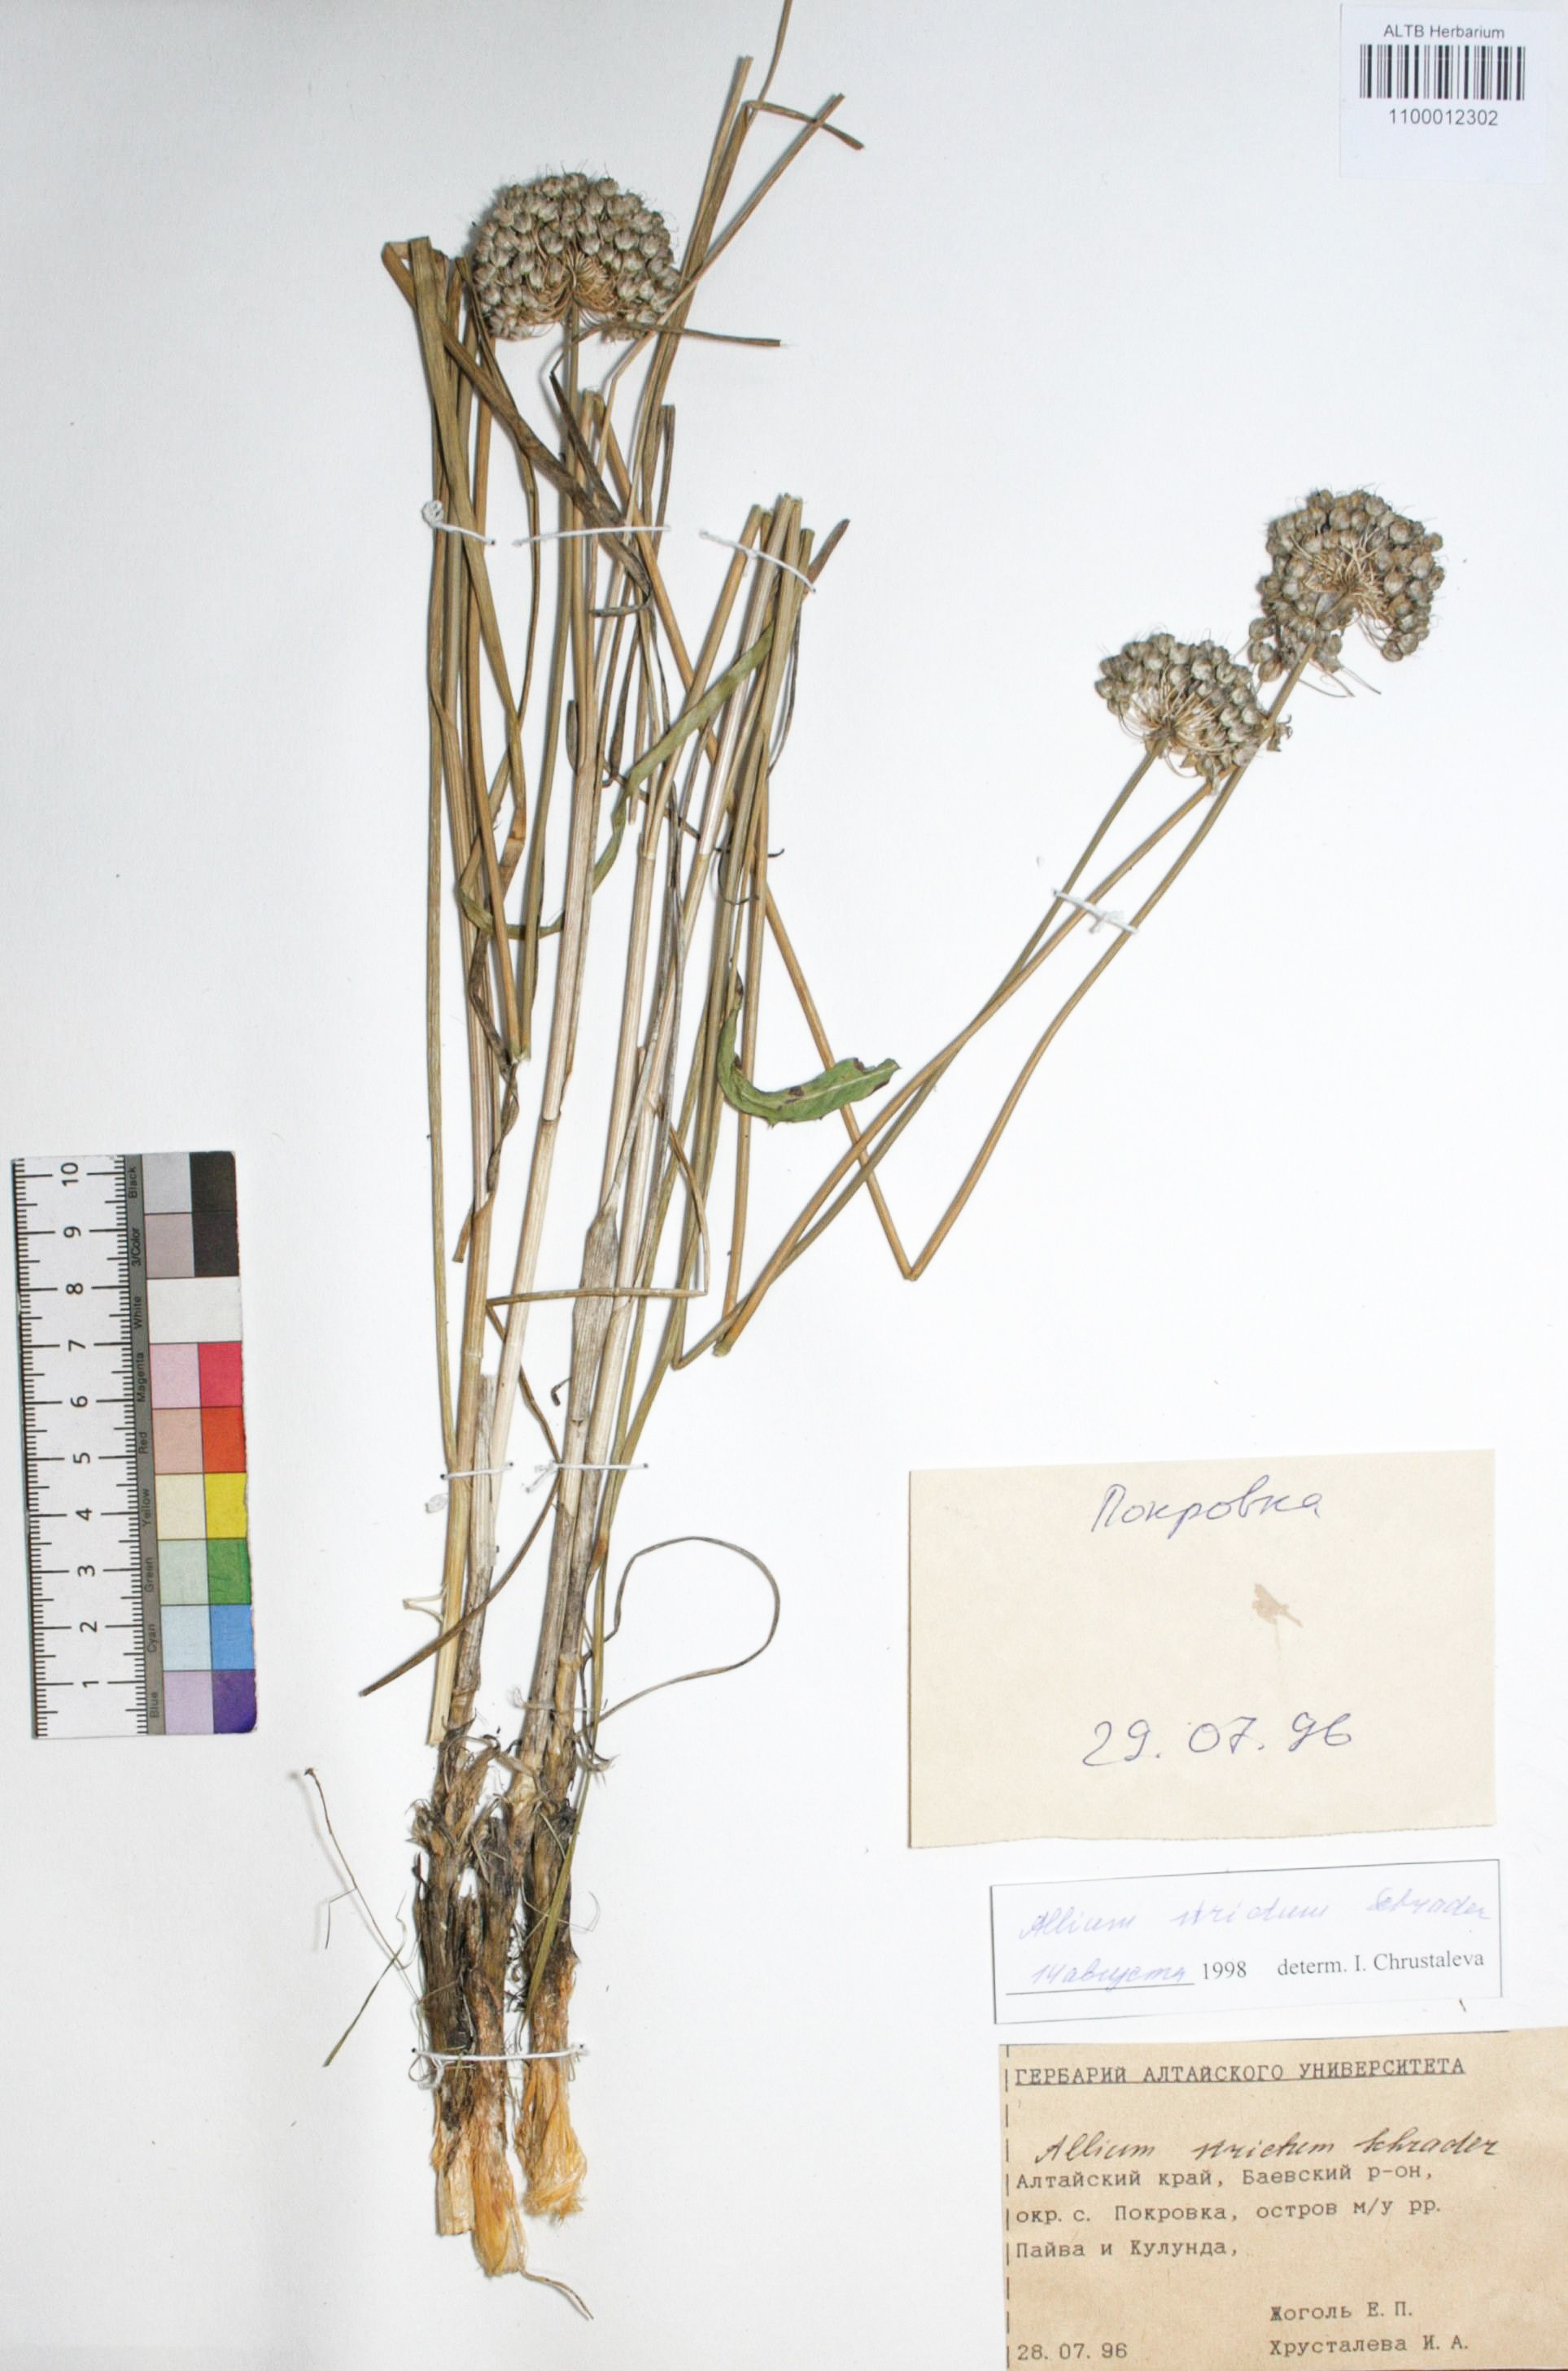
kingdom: Plantae
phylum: Tracheophyta
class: Liliopsida
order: Asparagales
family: Amaryllidaceae
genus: Allium
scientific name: Allium strictum
